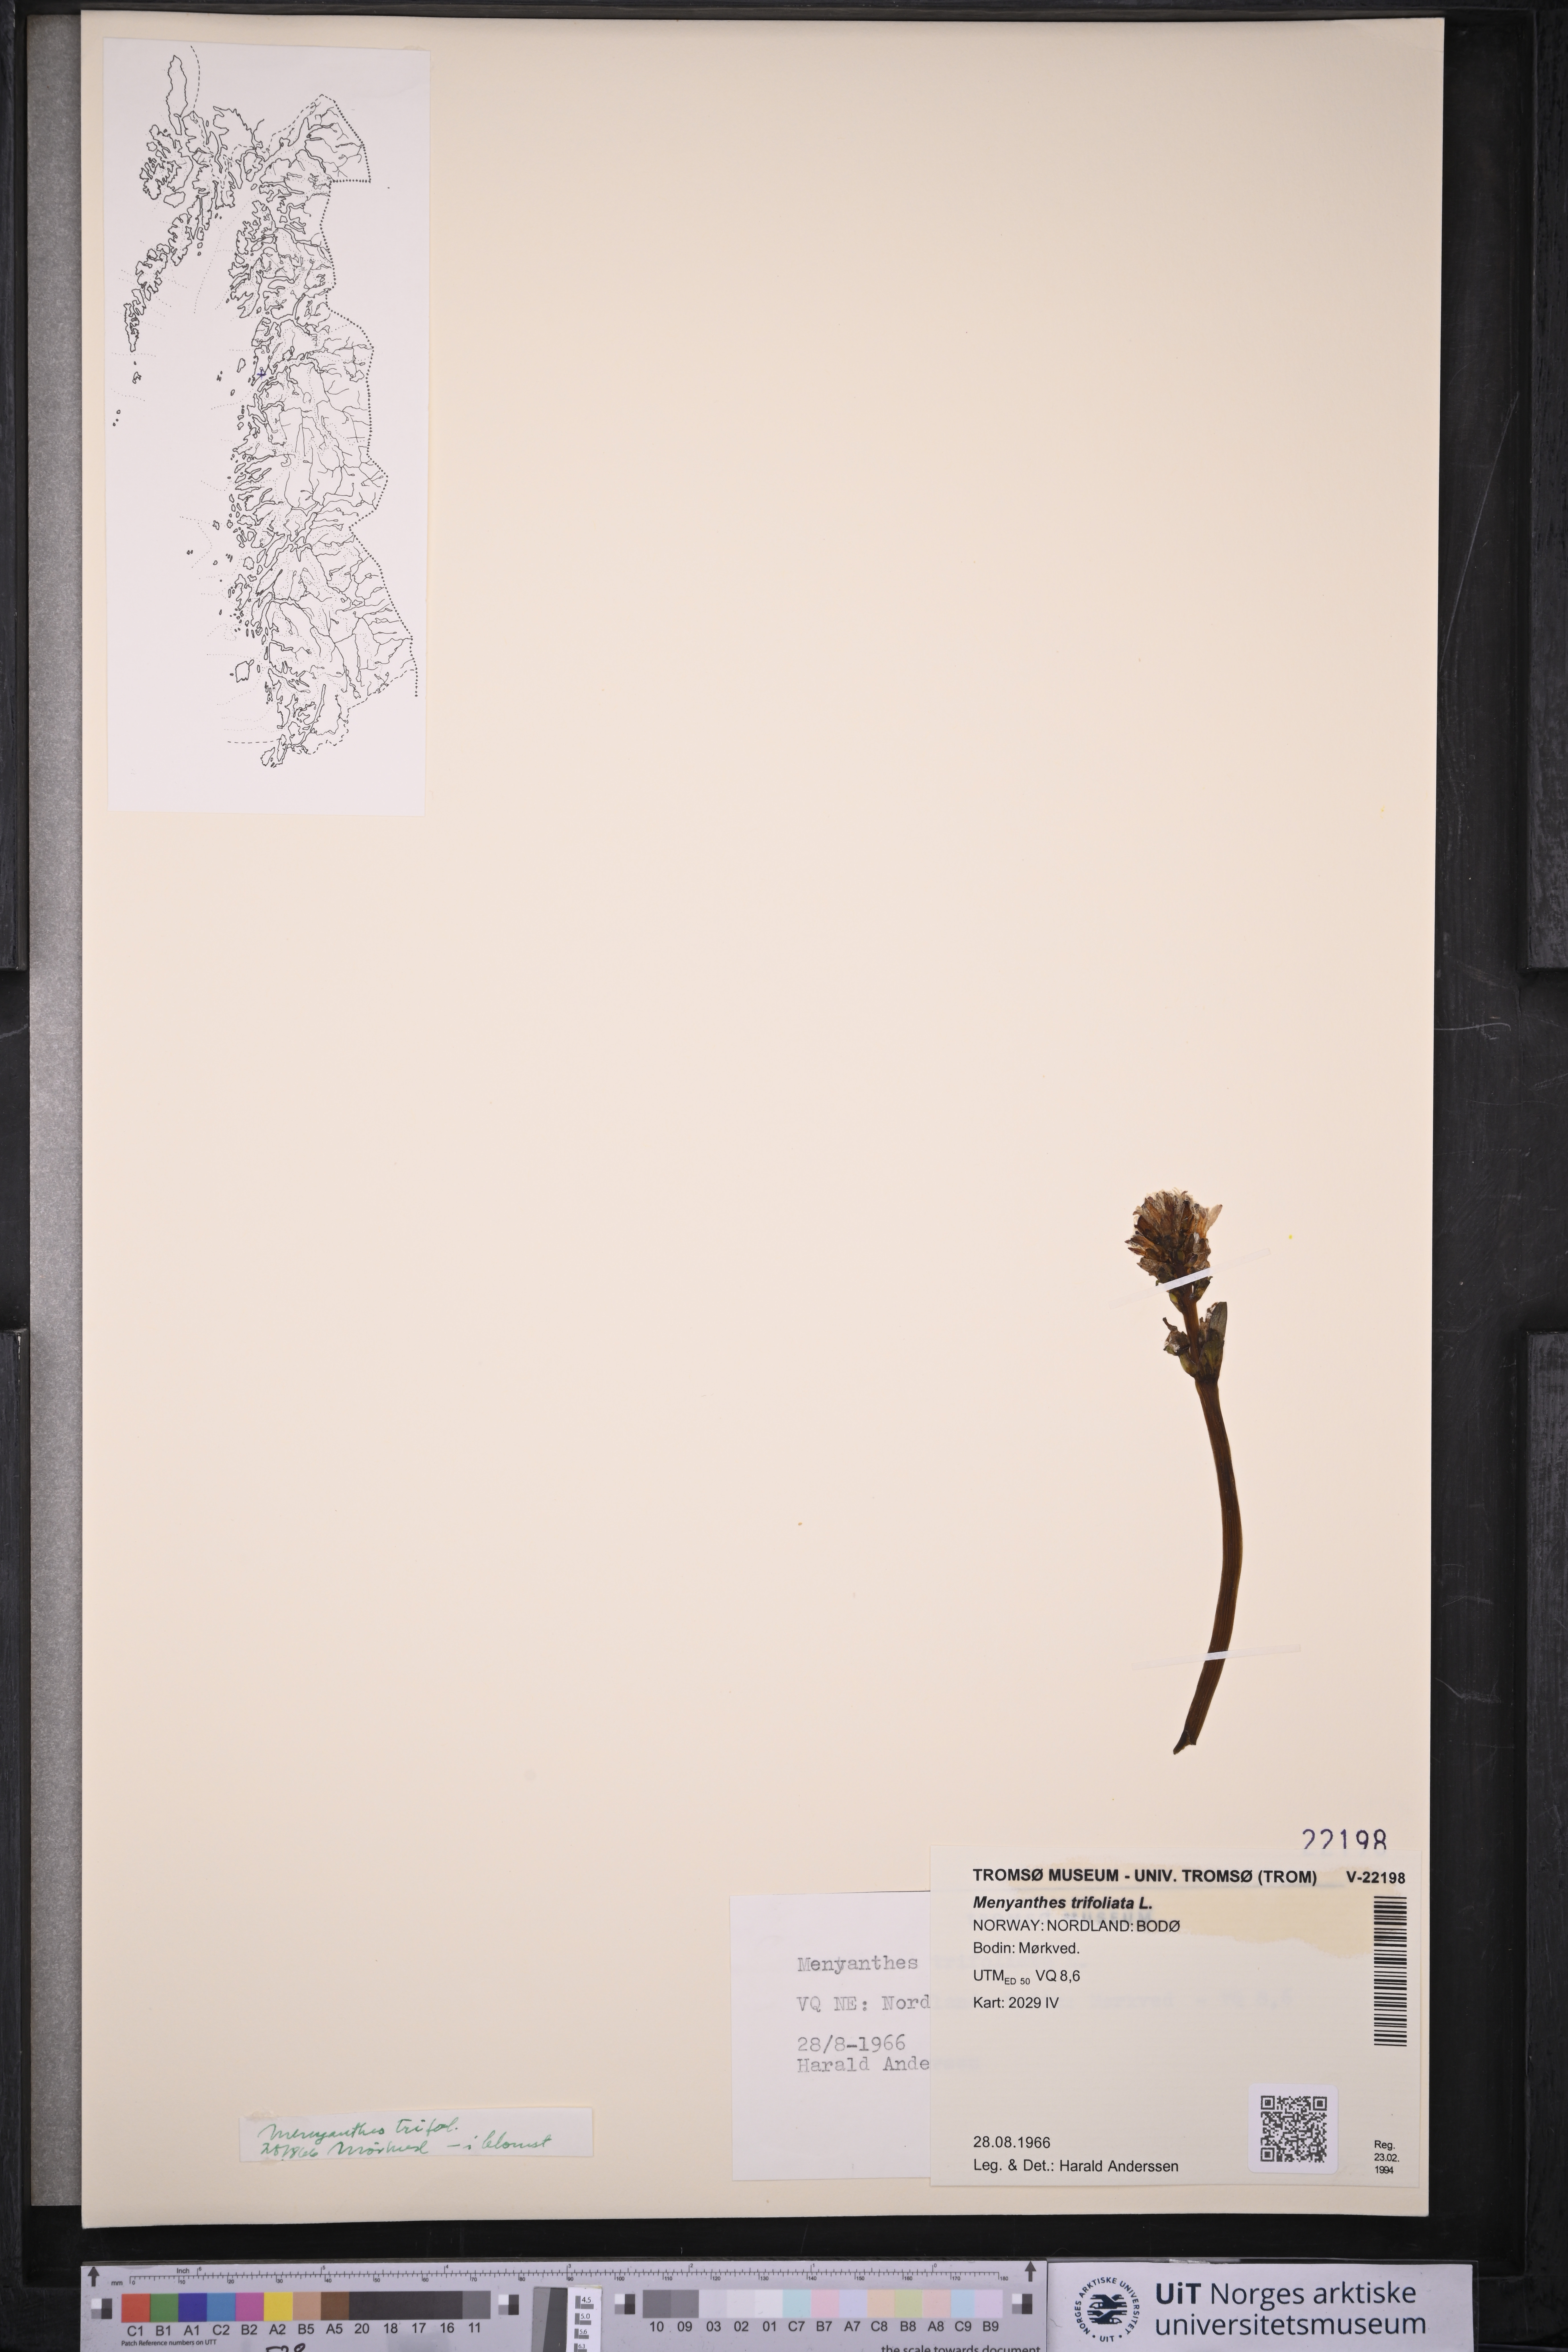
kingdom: Plantae
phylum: Tracheophyta
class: Magnoliopsida
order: Asterales
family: Menyanthaceae
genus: Menyanthes
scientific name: Menyanthes trifoliata
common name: Bogbean
